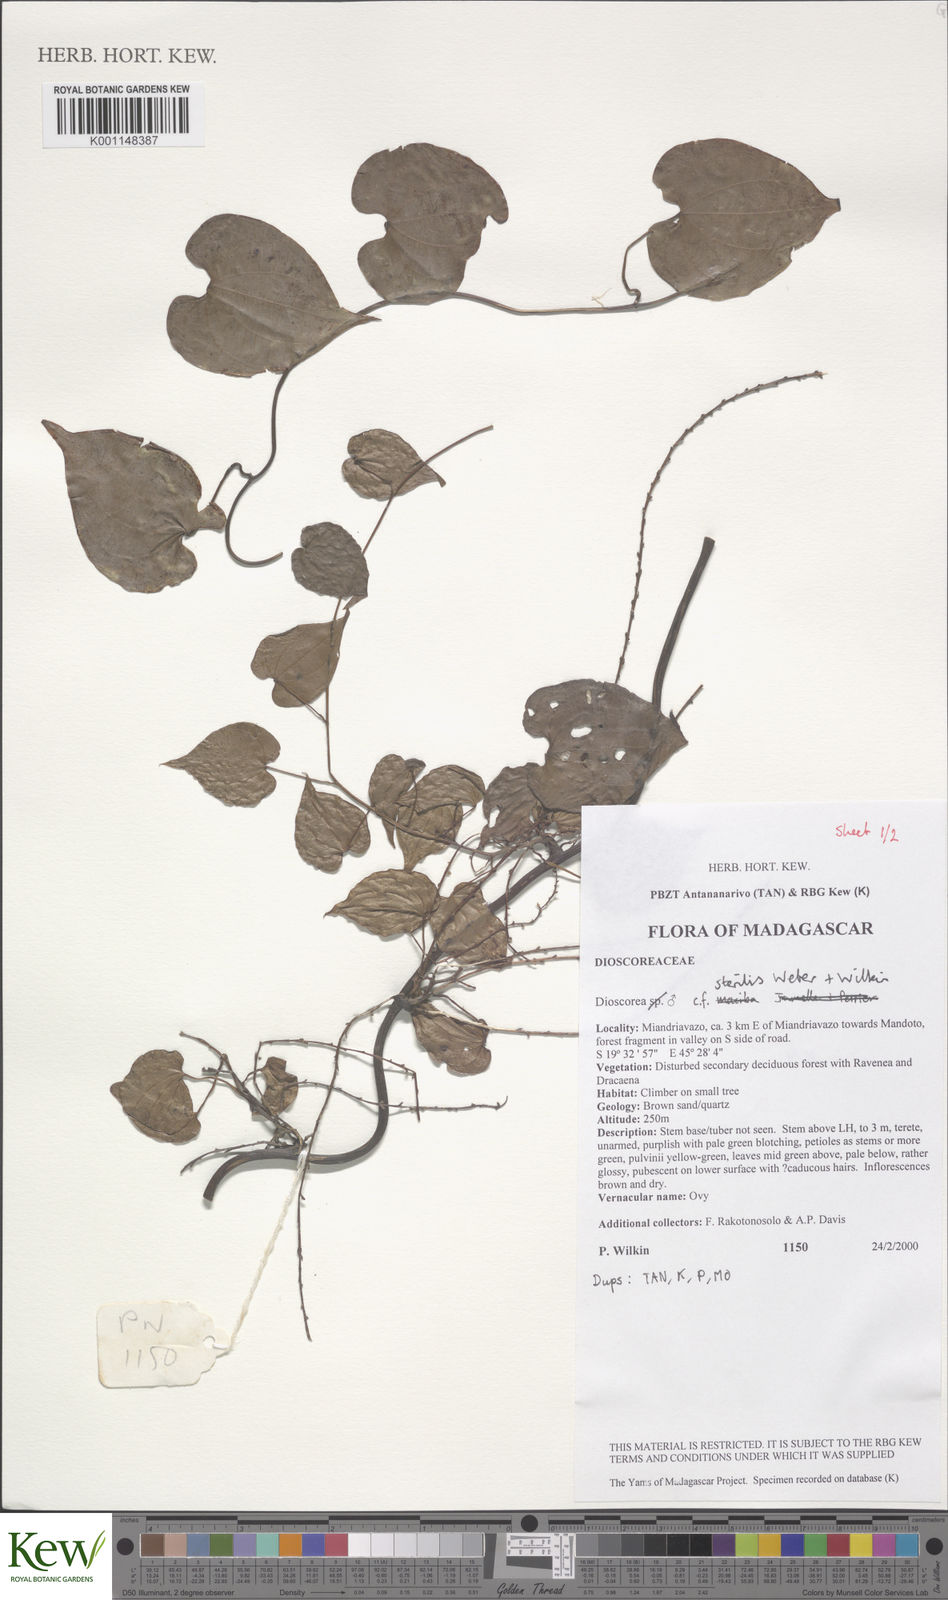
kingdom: Plantae
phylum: Tracheophyta
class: Liliopsida
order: Dioscoreales
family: Dioscoreaceae
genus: Dioscorea
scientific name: Dioscorea sterilis
